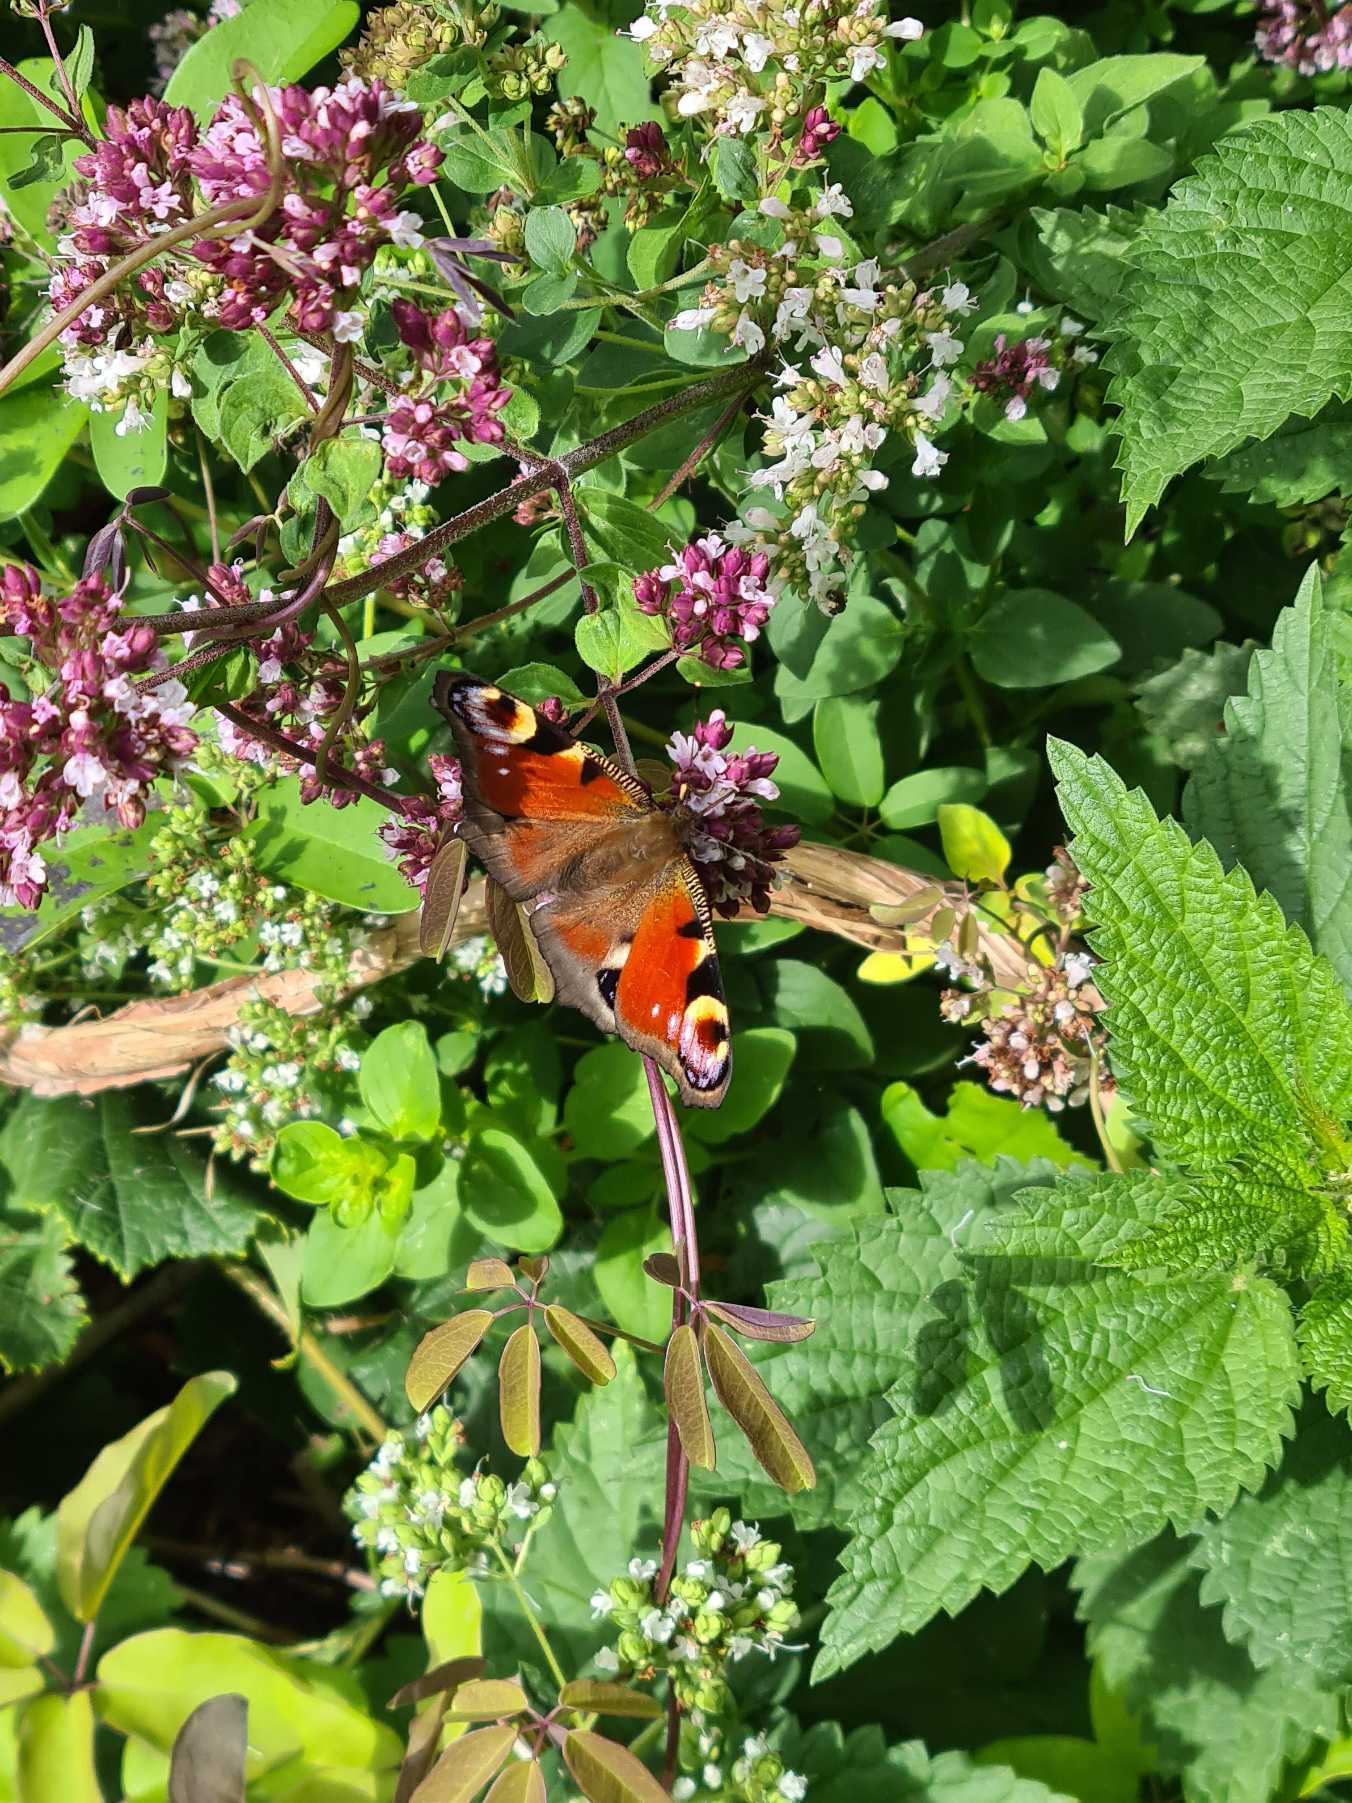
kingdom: Animalia
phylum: Arthropoda
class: Insecta
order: Lepidoptera
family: Nymphalidae
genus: Aglais
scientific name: Aglais io
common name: Dagpåfugleøje
